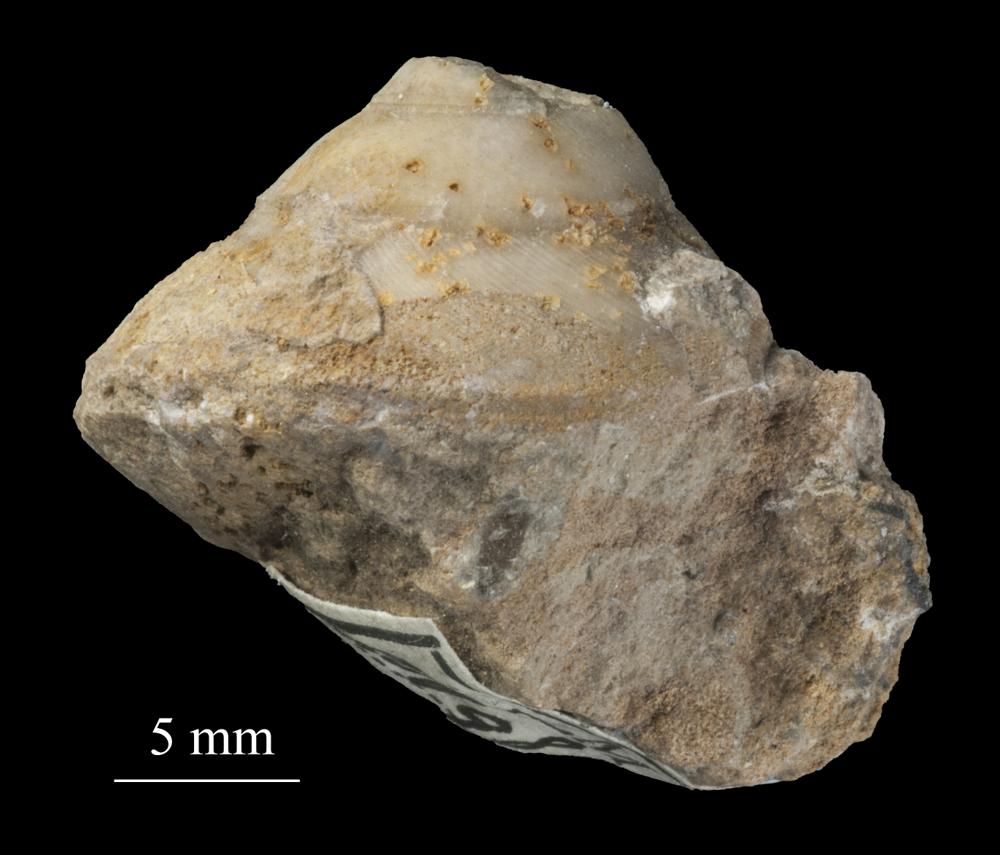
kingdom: Animalia
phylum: Mollusca
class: Gastropoda
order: Trochida
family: Trochidae
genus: Trochus
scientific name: Trochus ellipticus
